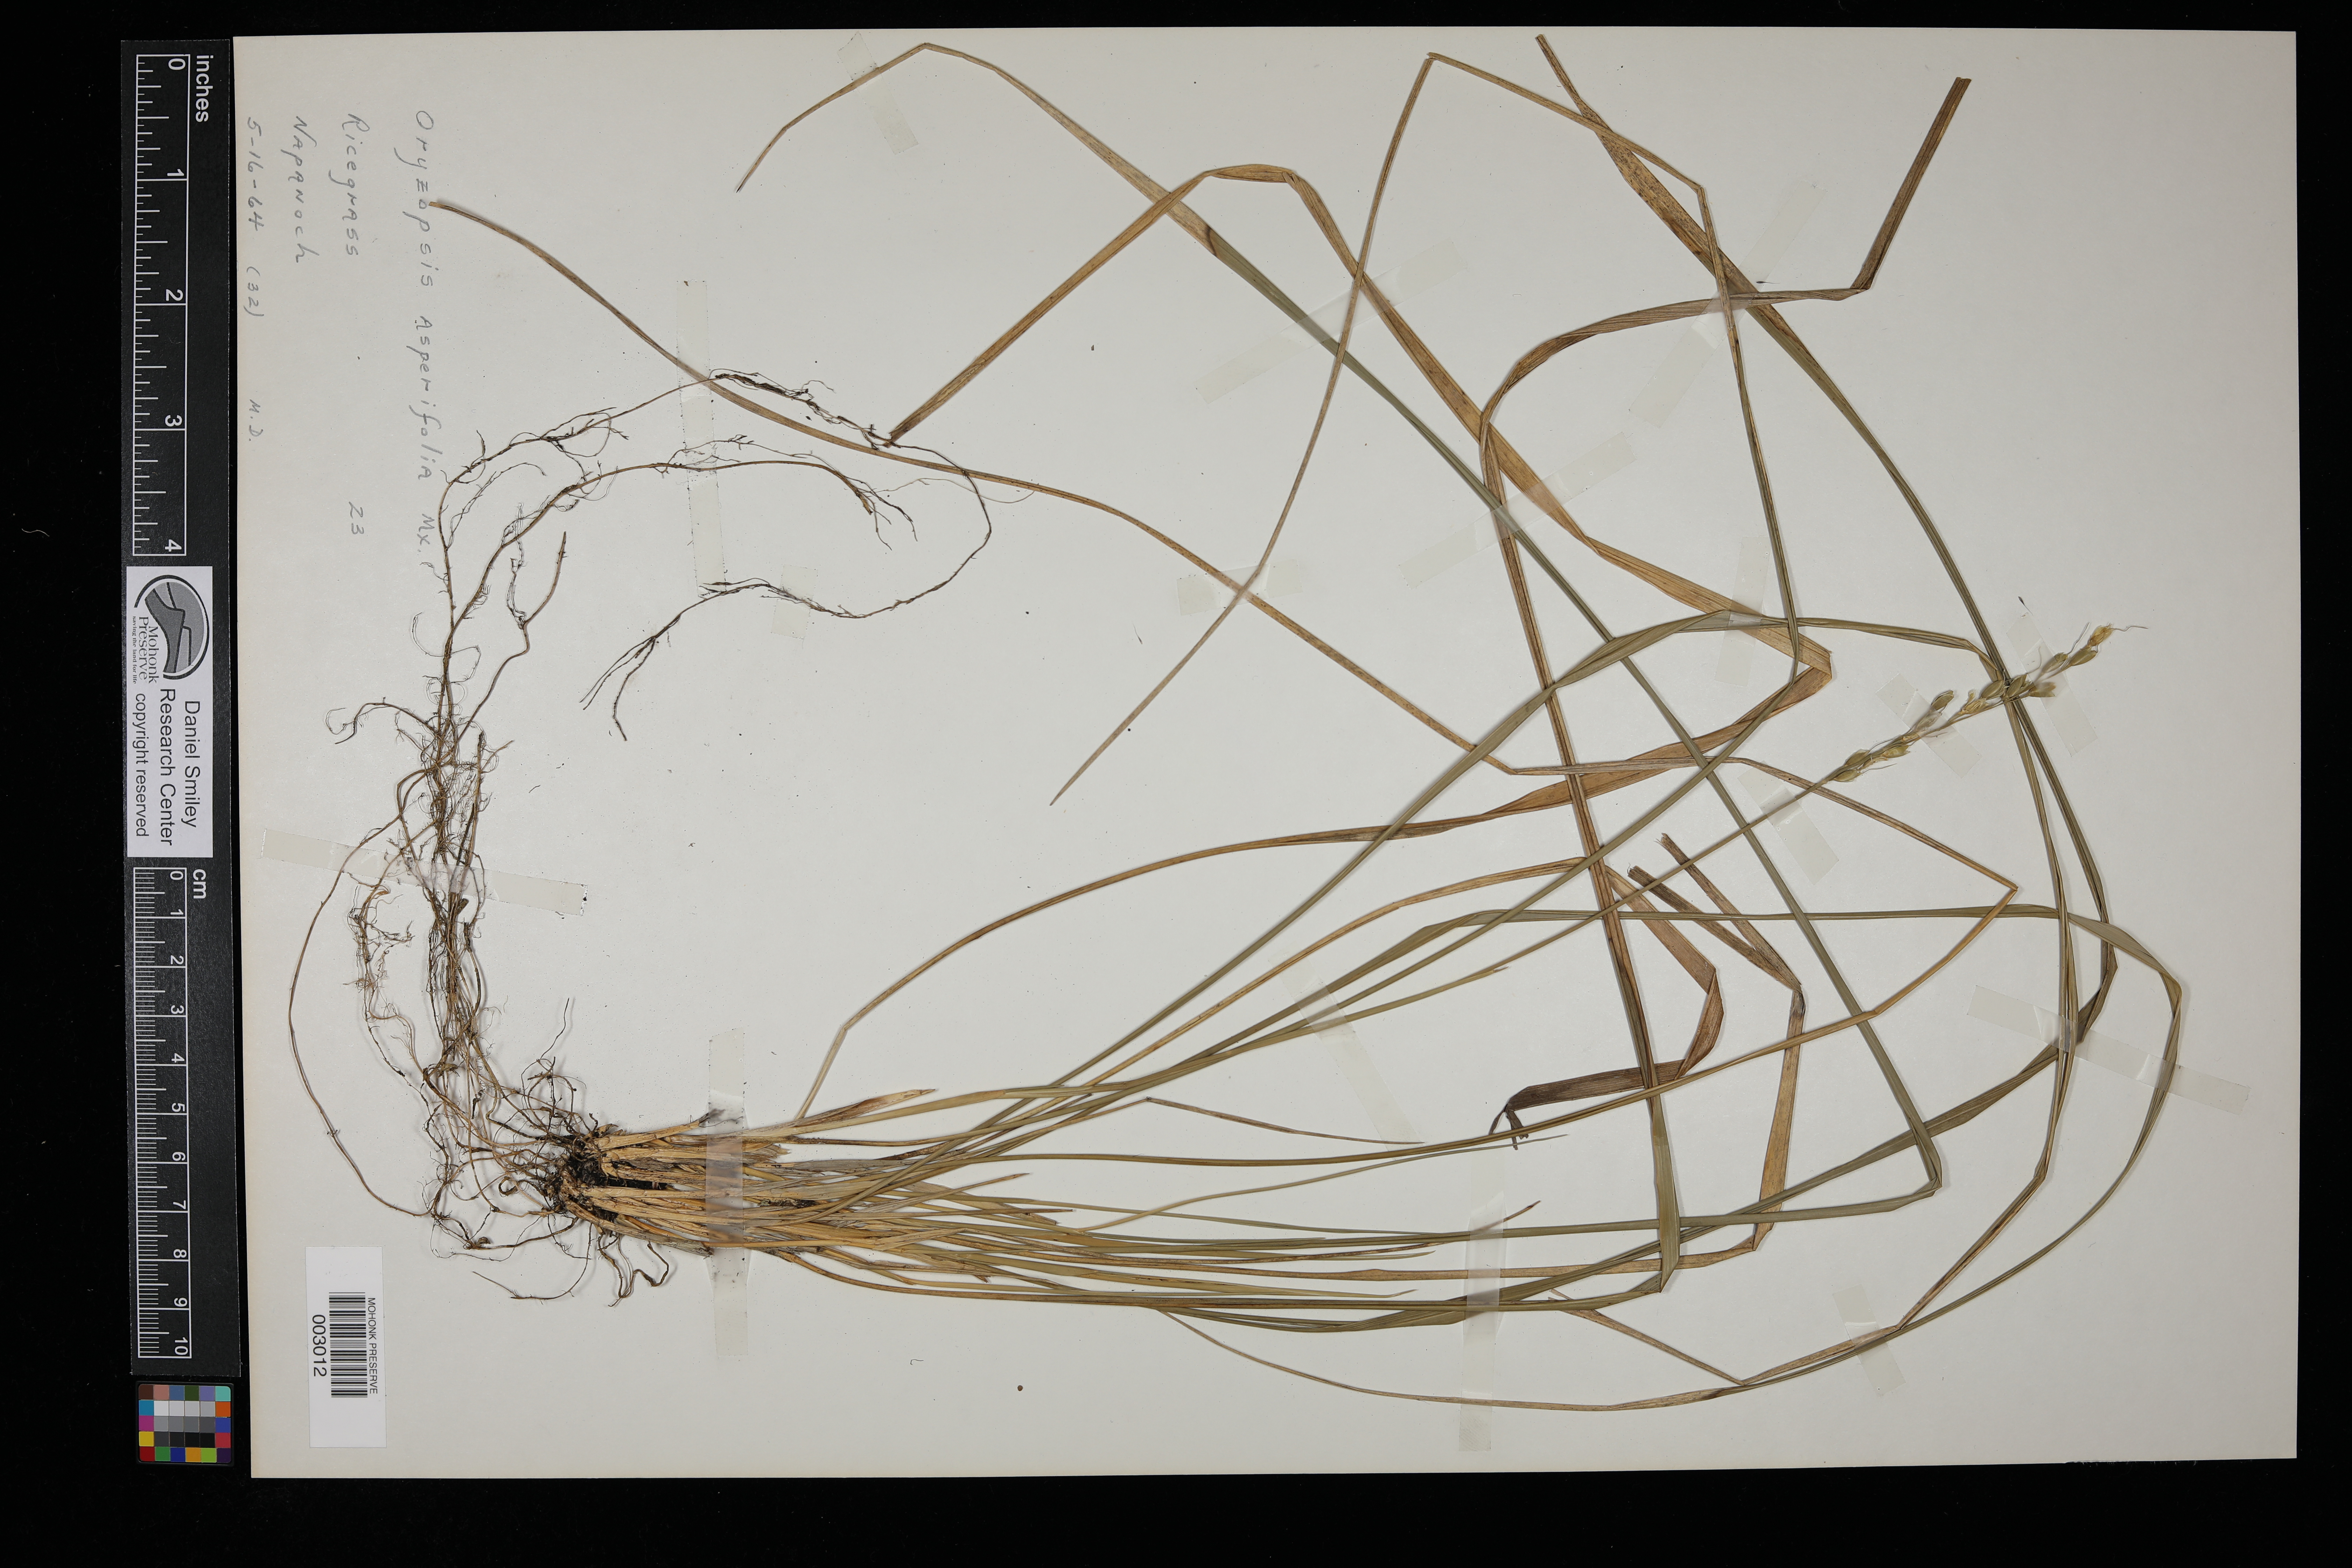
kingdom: Plantae
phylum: Tracheophyta
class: Liliopsida
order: Poales
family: Poaceae
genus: Oryzopsis
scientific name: Oryzopsis asperifolia
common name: Rough-leaved mountain rice
